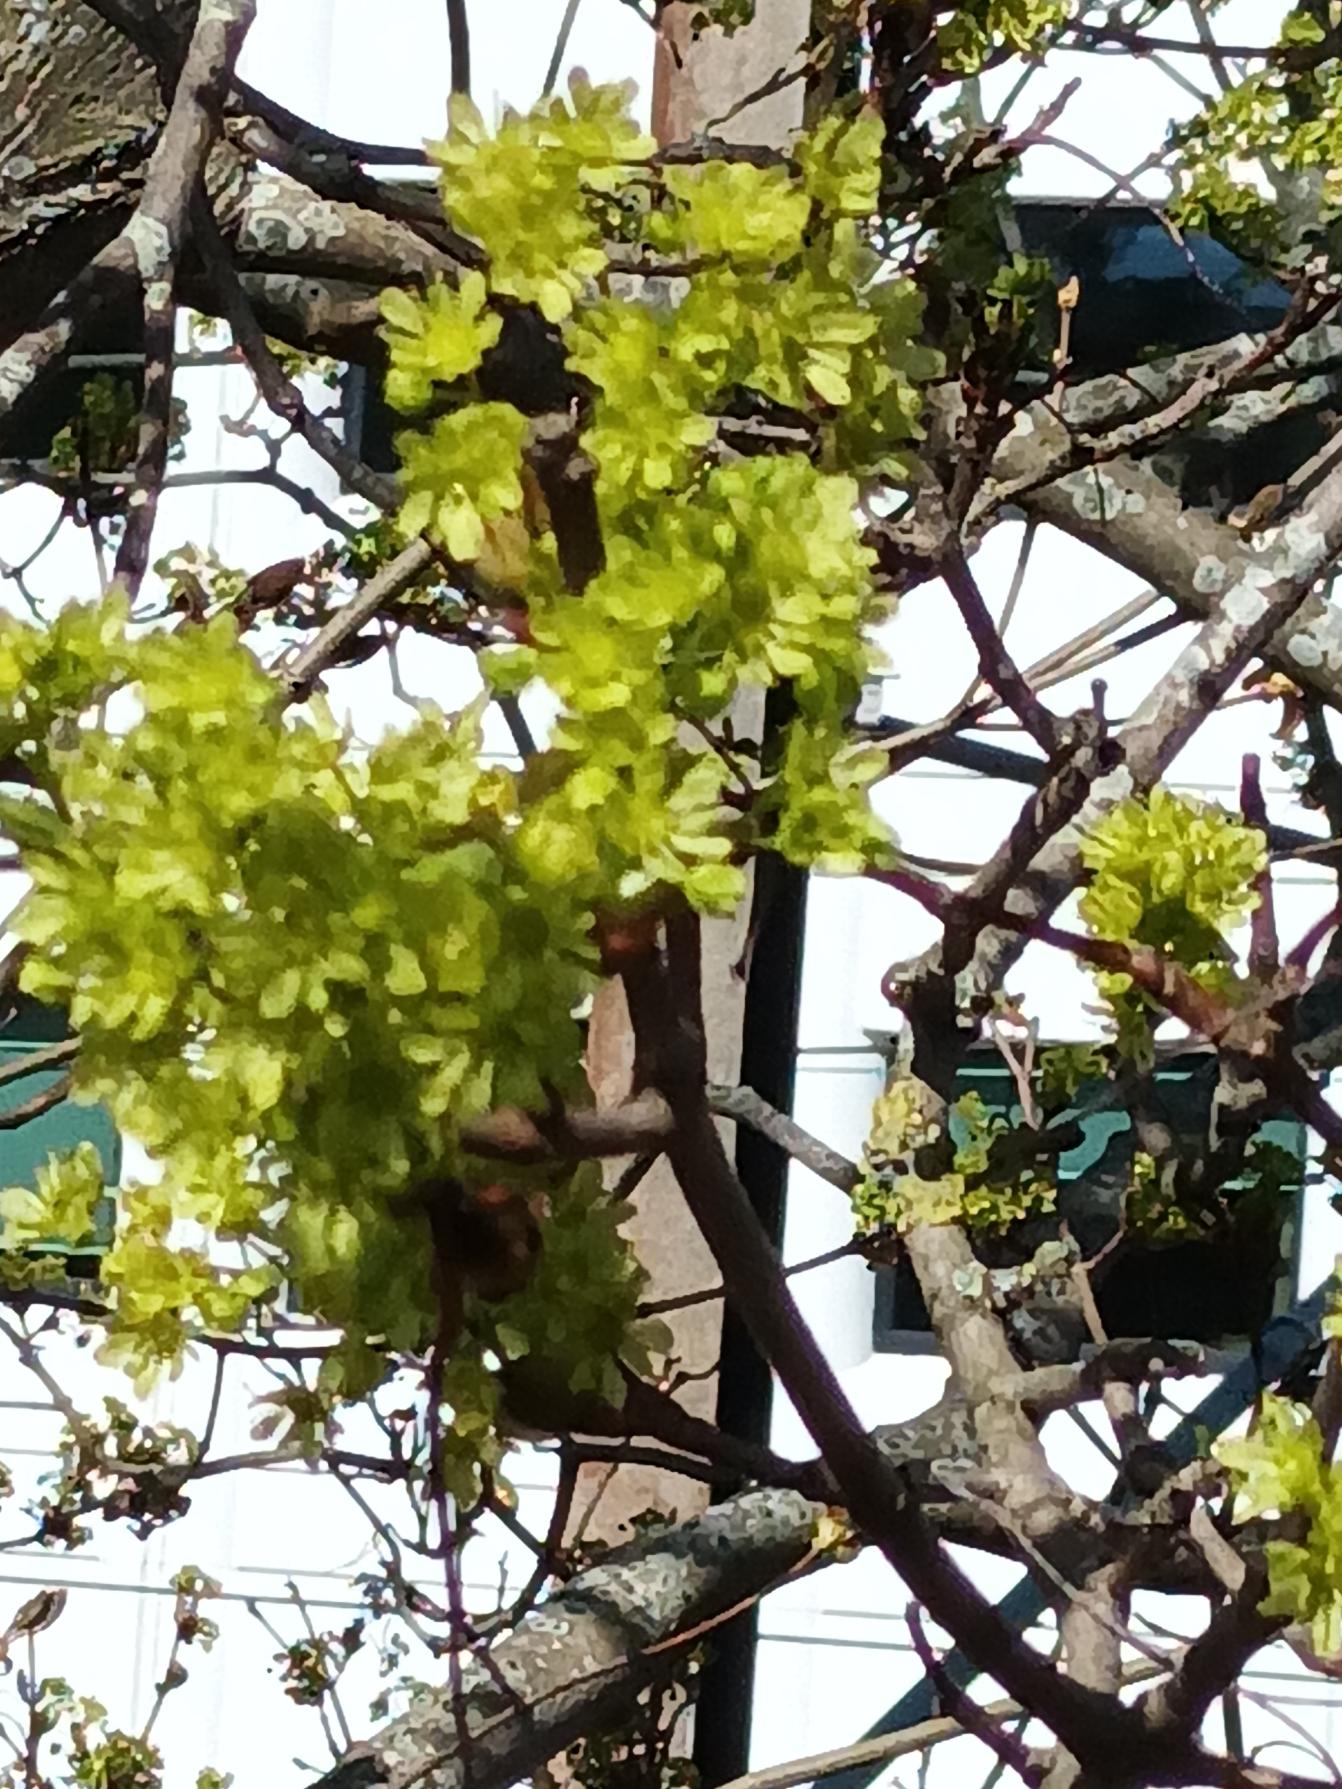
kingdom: Plantae
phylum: Tracheophyta
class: Magnoliopsida
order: Sapindales
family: Sapindaceae
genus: Acer
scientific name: Acer platanoides
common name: Spids-løn
